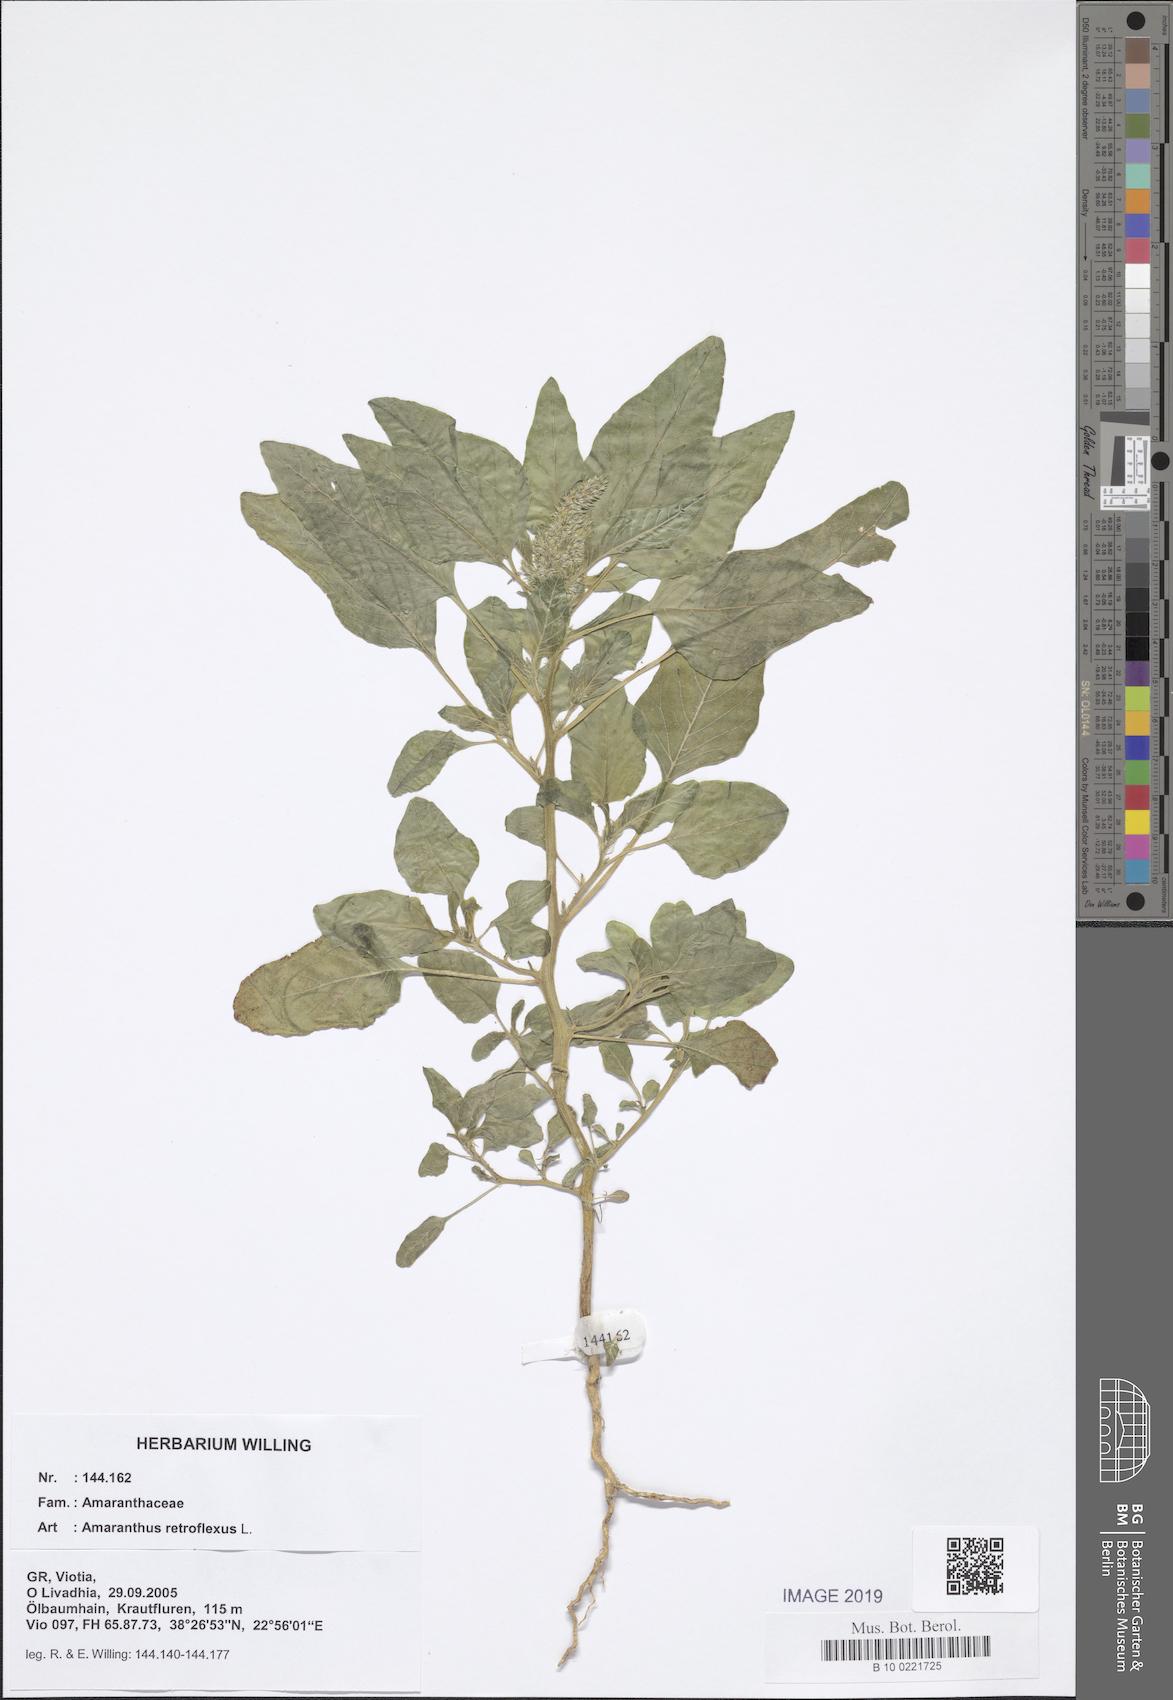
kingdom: Plantae
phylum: Tracheophyta
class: Magnoliopsida
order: Caryophyllales
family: Amaranthaceae
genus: Amaranthus
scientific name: Amaranthus retroflexus
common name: Redroot amaranth
